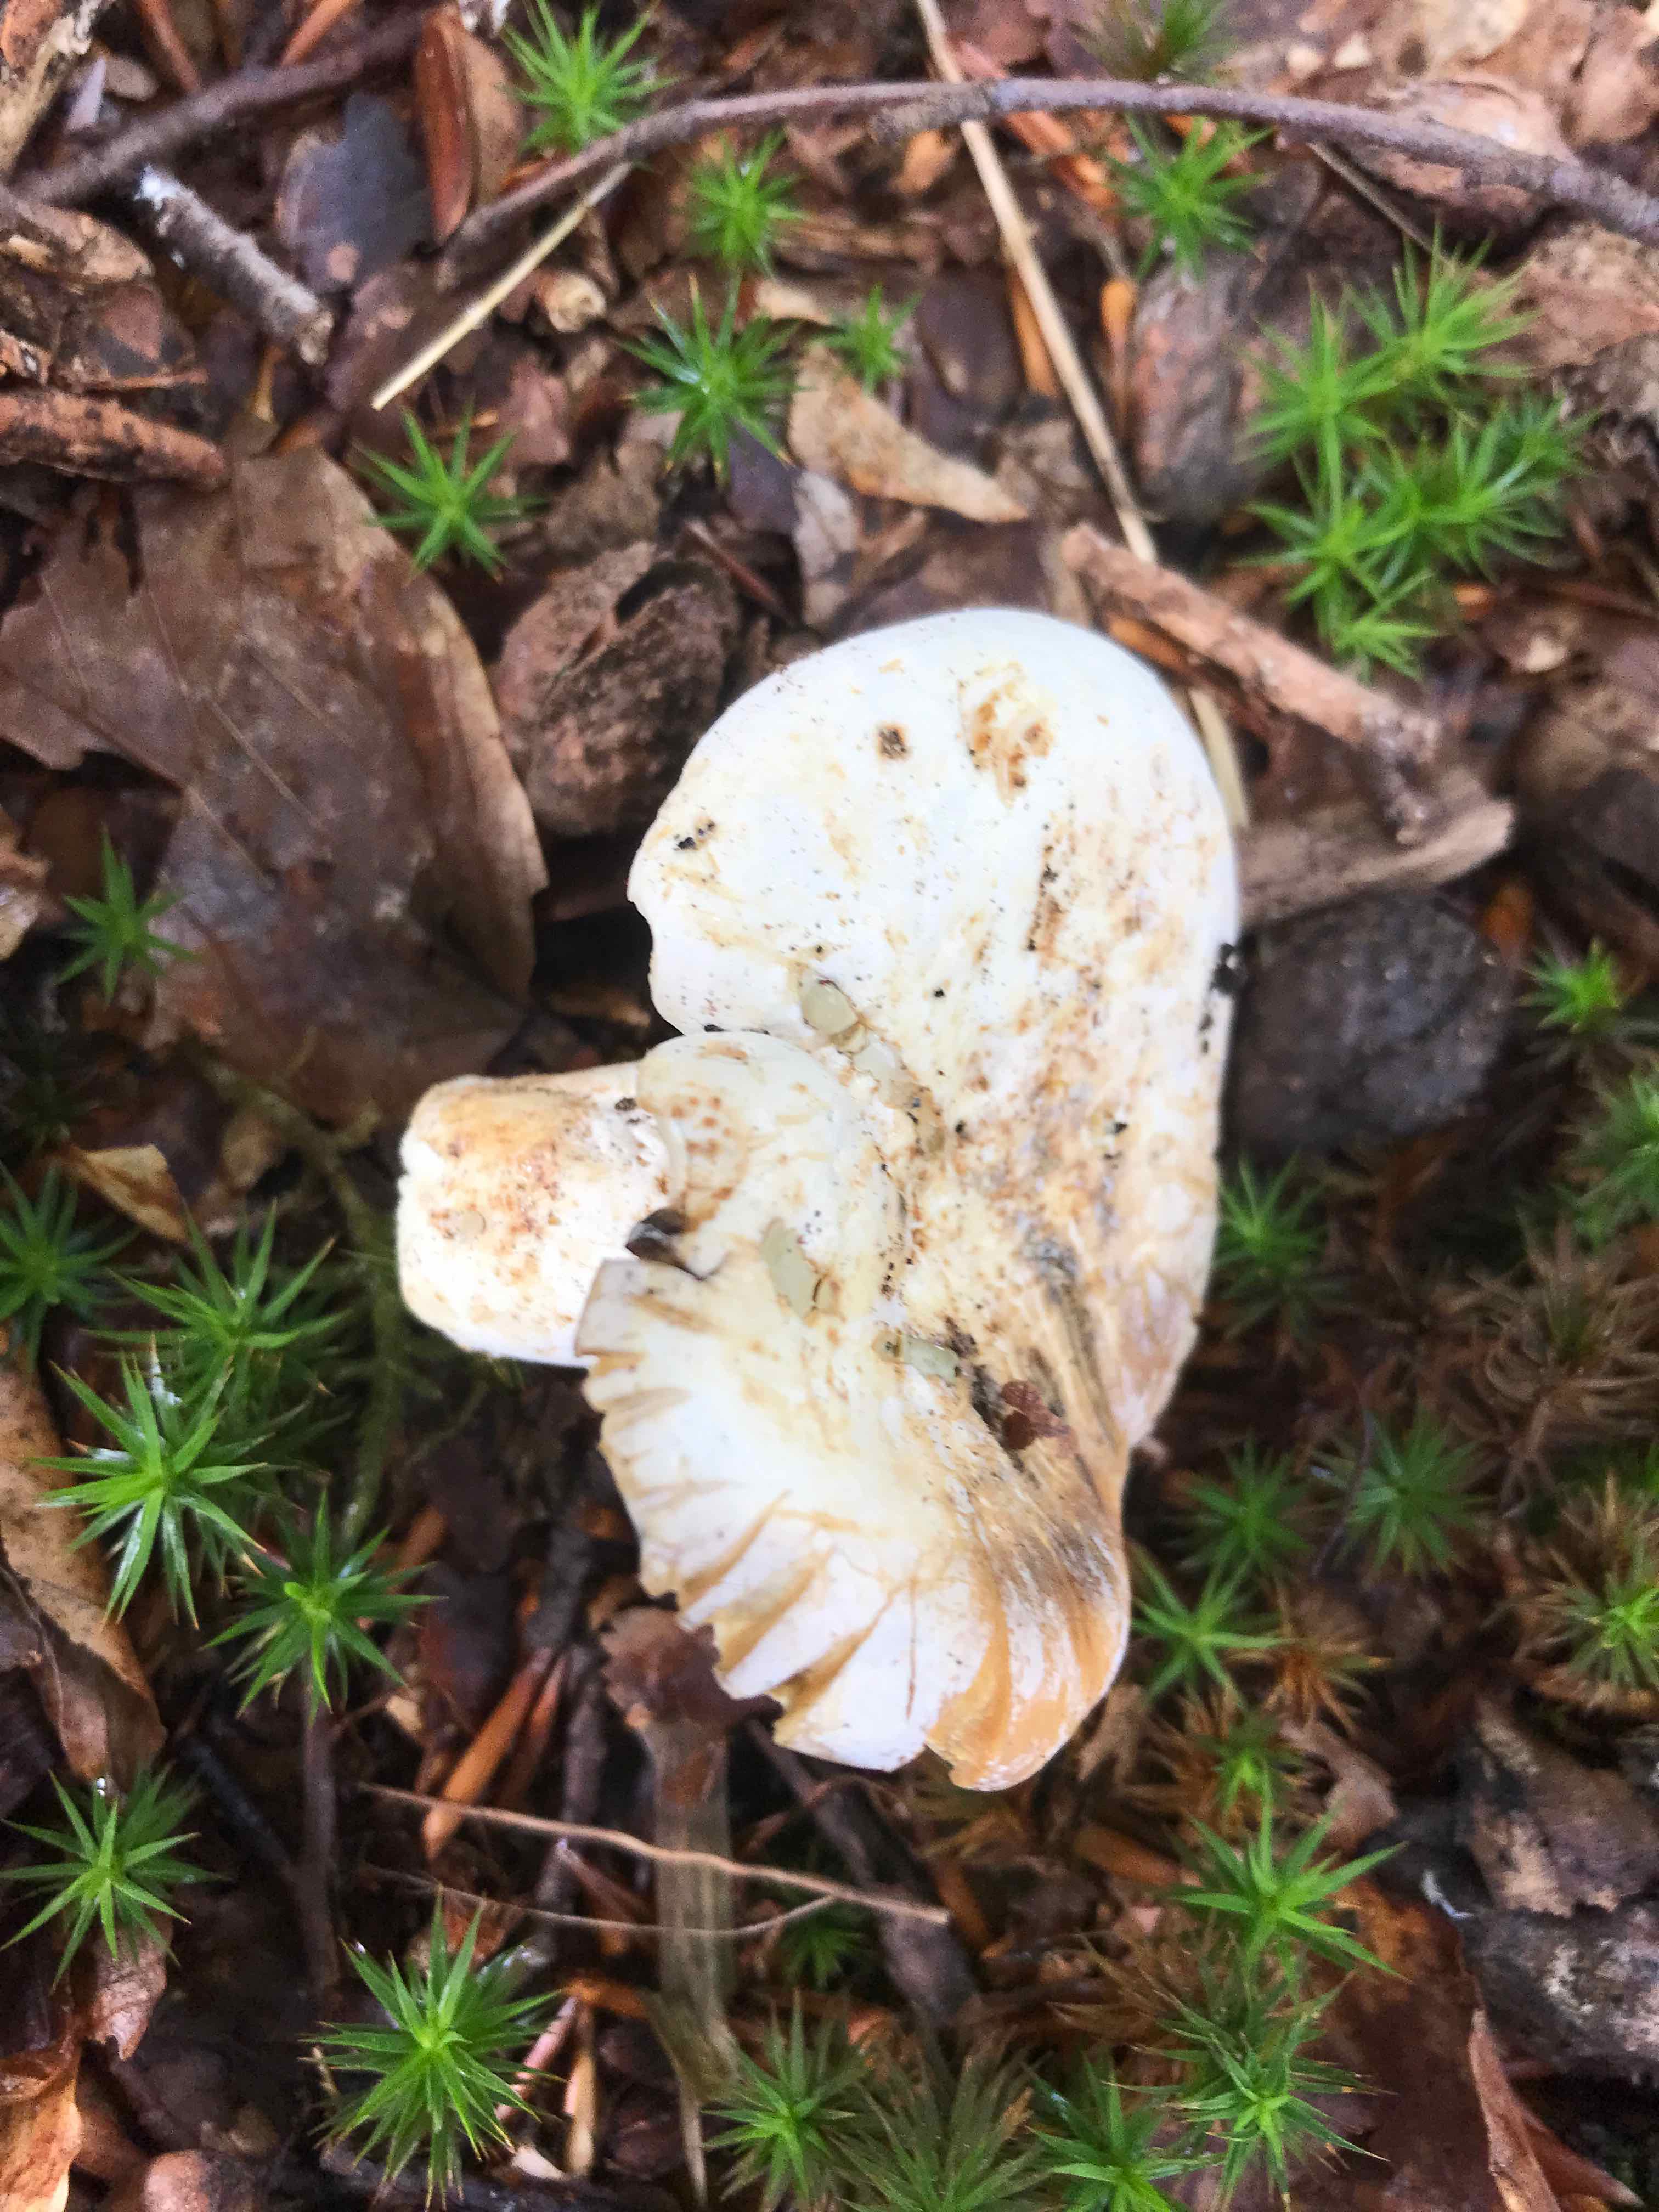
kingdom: Fungi
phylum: Basidiomycota
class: Agaricomycetes
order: Russulales
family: Russulaceae
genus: Lactifluus
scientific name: Lactifluus piperatus
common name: peber-mælkehat
